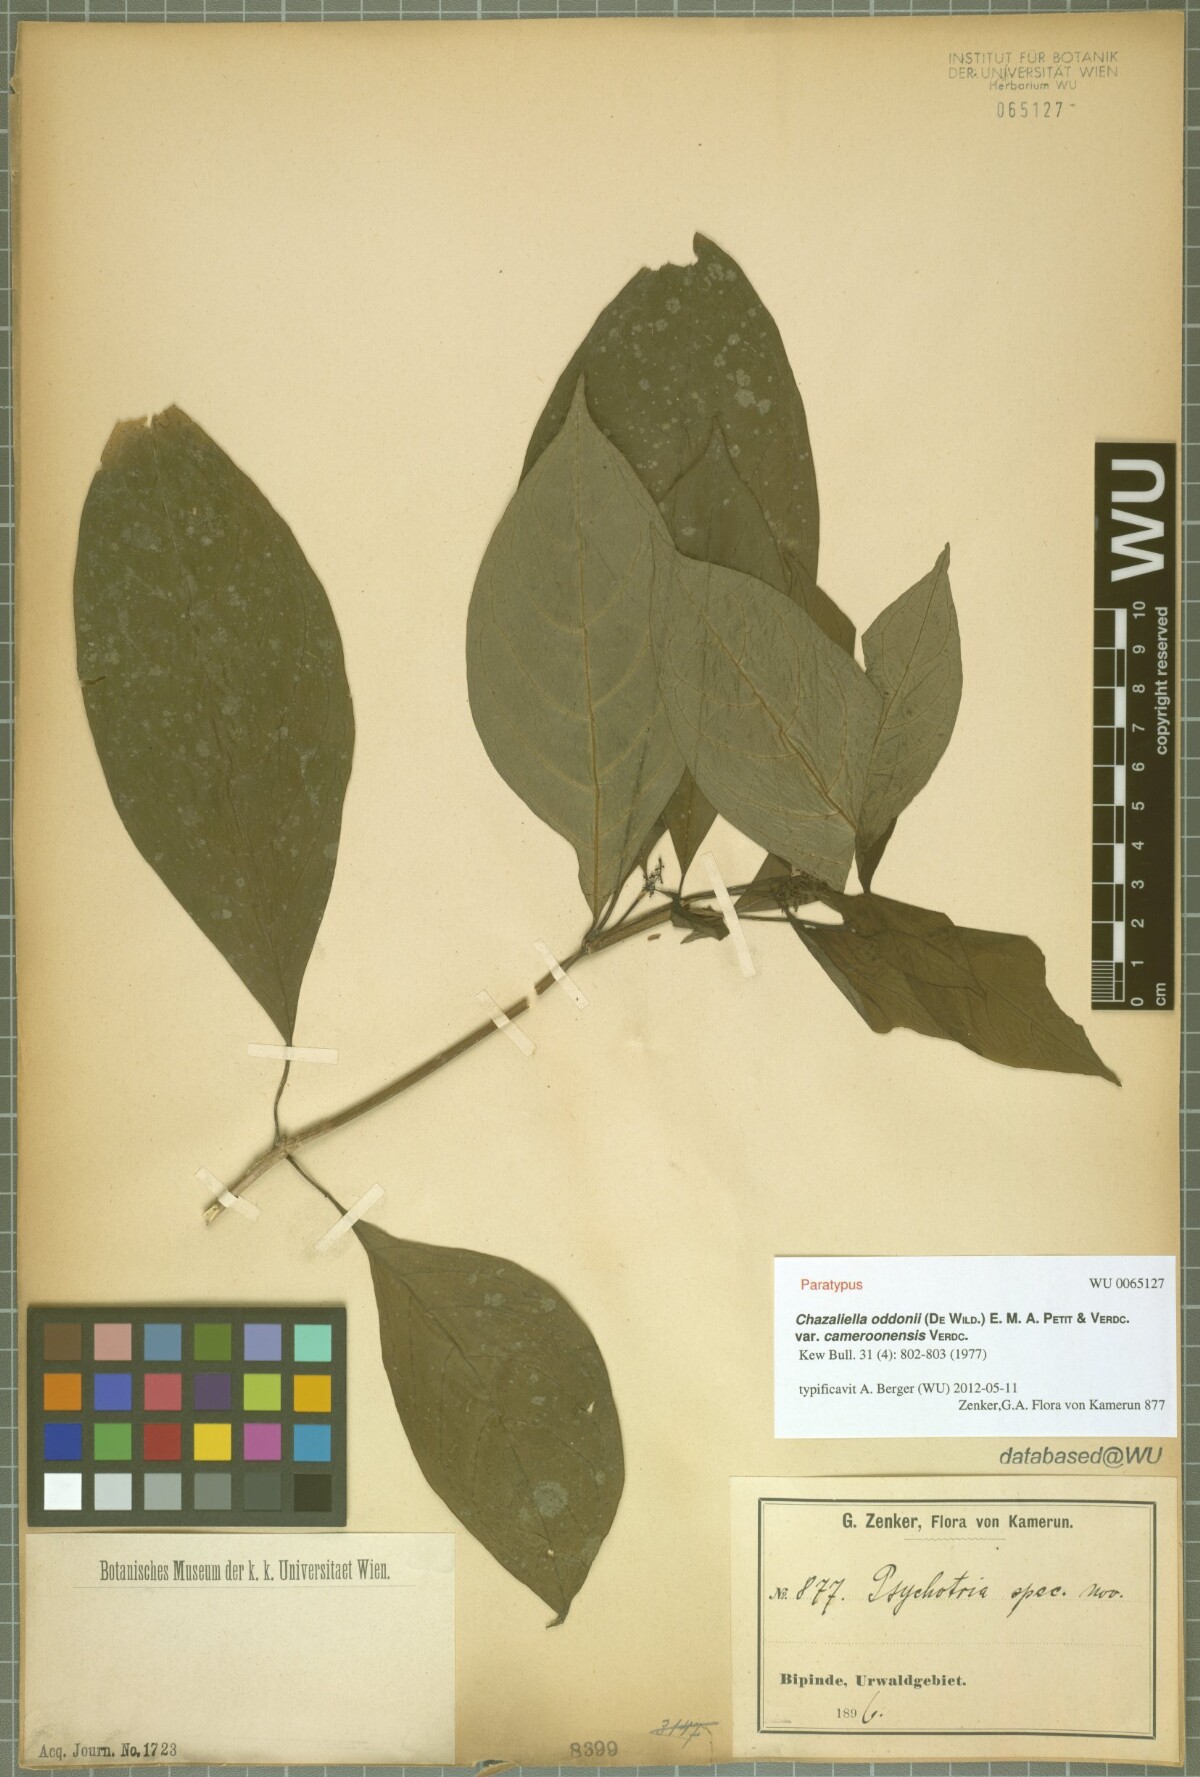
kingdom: Plantae
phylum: Tracheophyta
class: Magnoliopsida
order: Gentianales
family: Rubiaceae
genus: Eumachia
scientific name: Eumachia oddonii
